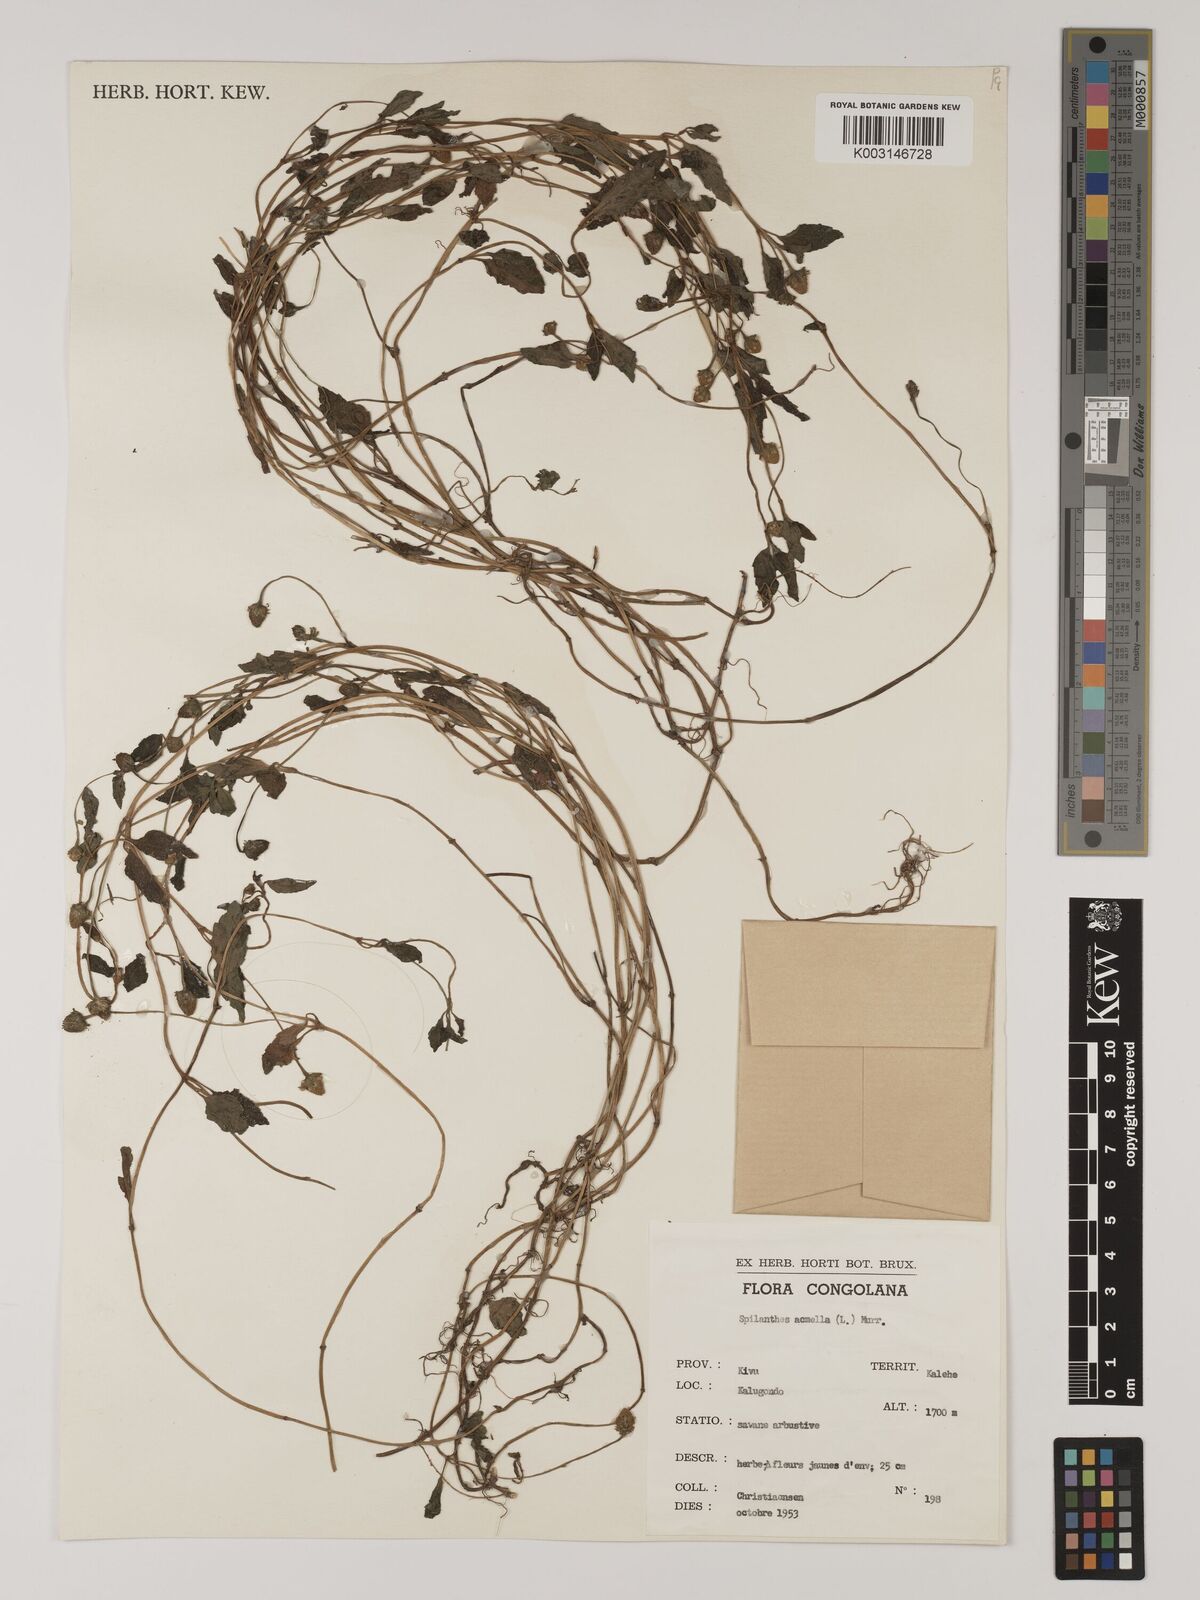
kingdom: Plantae
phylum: Tracheophyta
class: Magnoliopsida
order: Asterales
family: Asteraceae
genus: Blainvillea
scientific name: Blainvillea acmella
